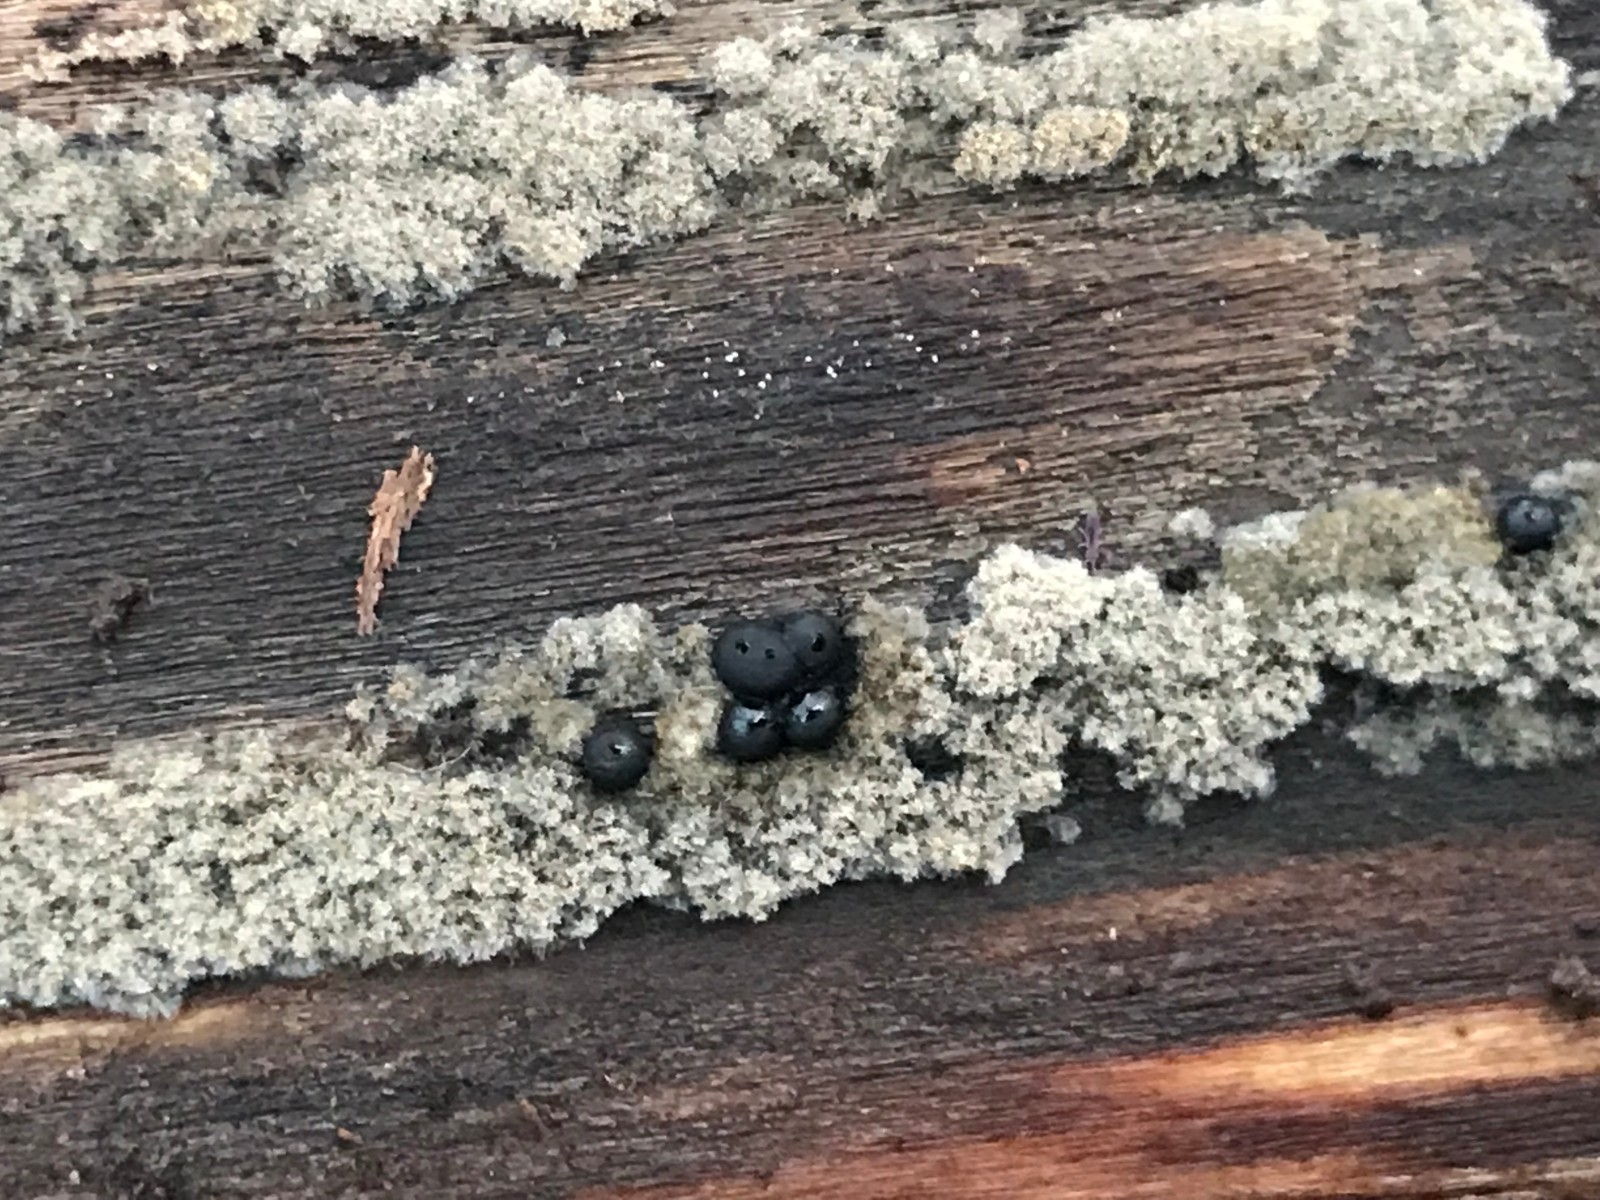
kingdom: Fungi
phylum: Ascomycota
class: Sordariomycetes
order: Xylariales
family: Xylariaceae
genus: Rosellinia
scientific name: Rosellinia
